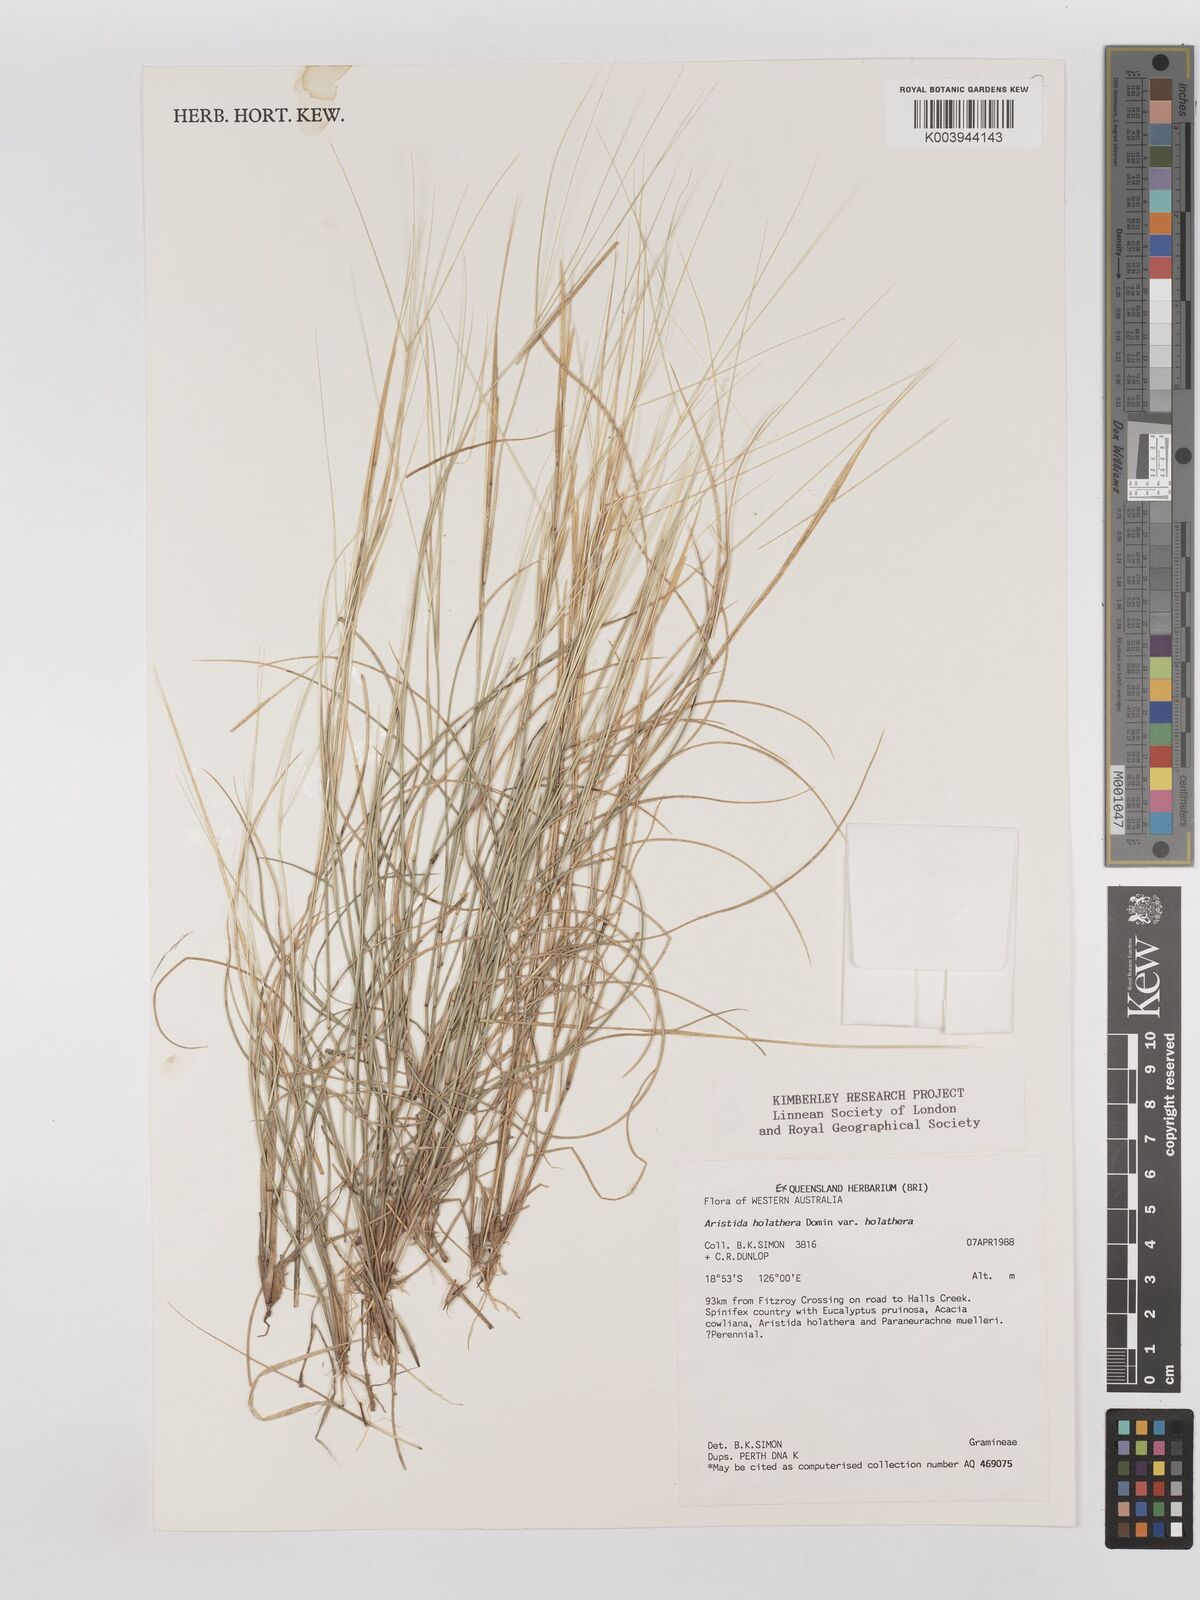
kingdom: Plantae
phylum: Tracheophyta
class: Liliopsida
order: Poales
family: Poaceae
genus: Aristida
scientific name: Aristida holathera
